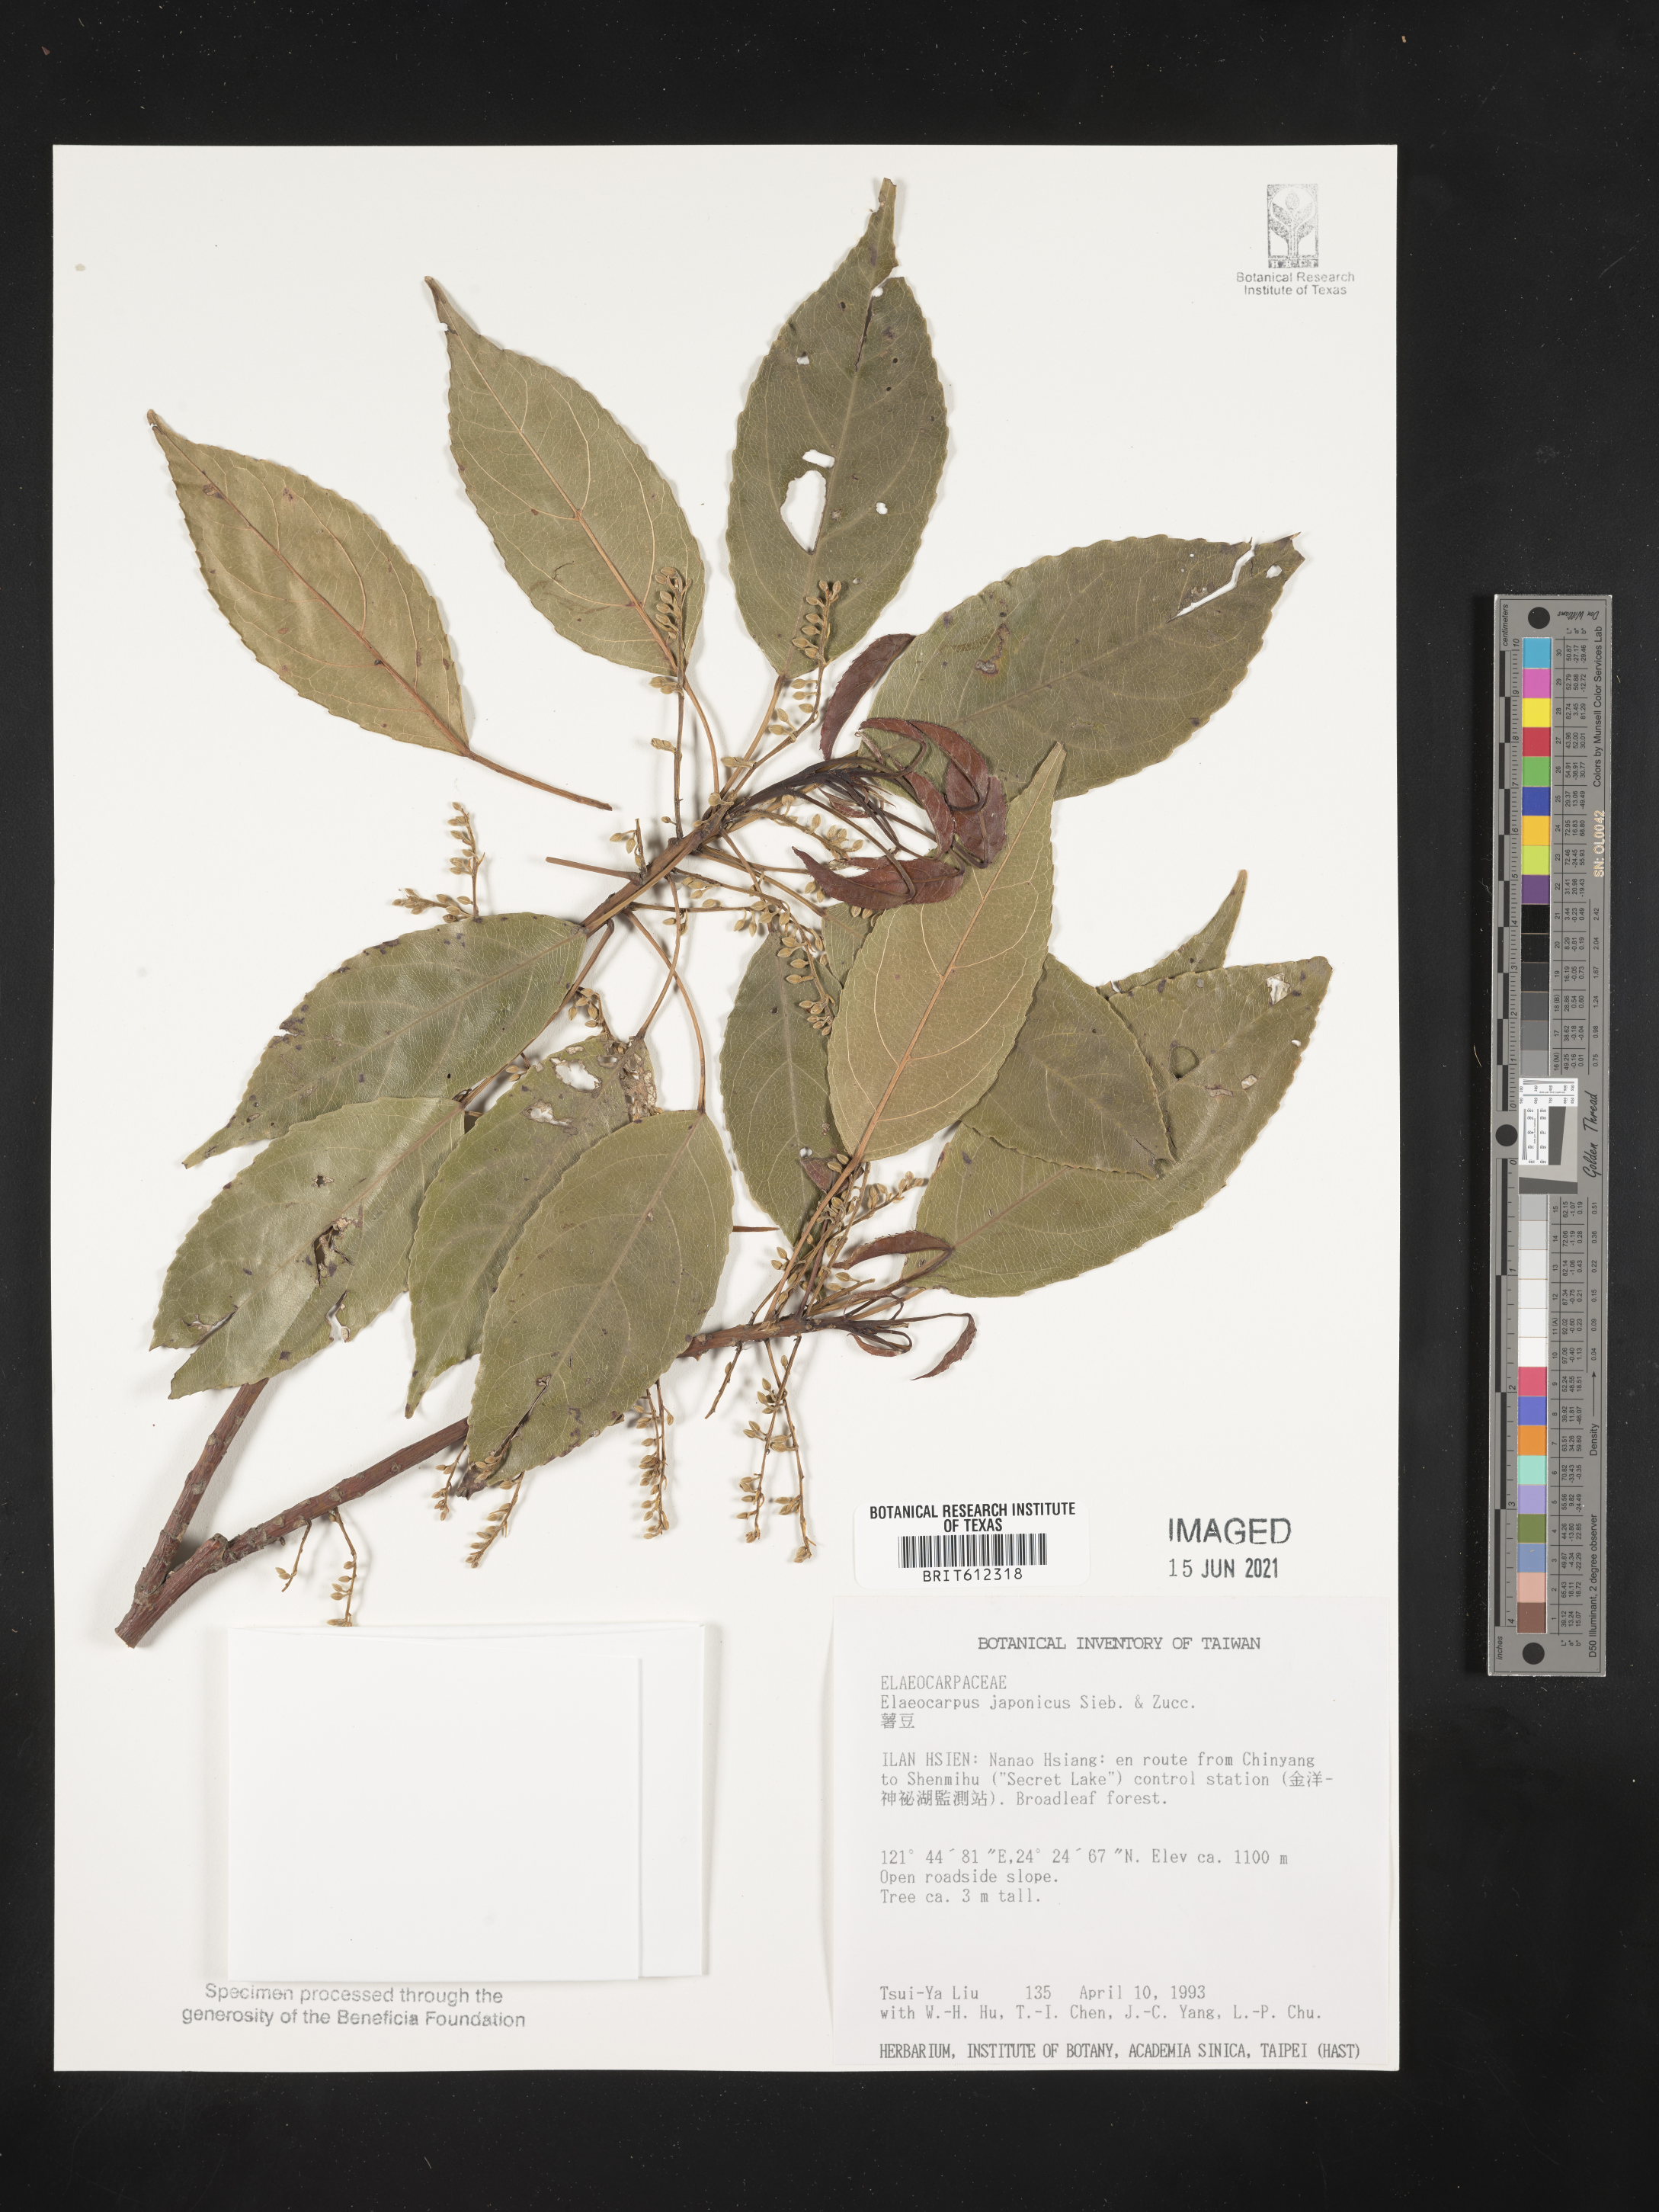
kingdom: Plantae
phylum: Tracheophyta
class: Magnoliopsida
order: Oxalidales
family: Elaeocarpaceae
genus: Elaeocarpus
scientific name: Elaeocarpus japonicus
